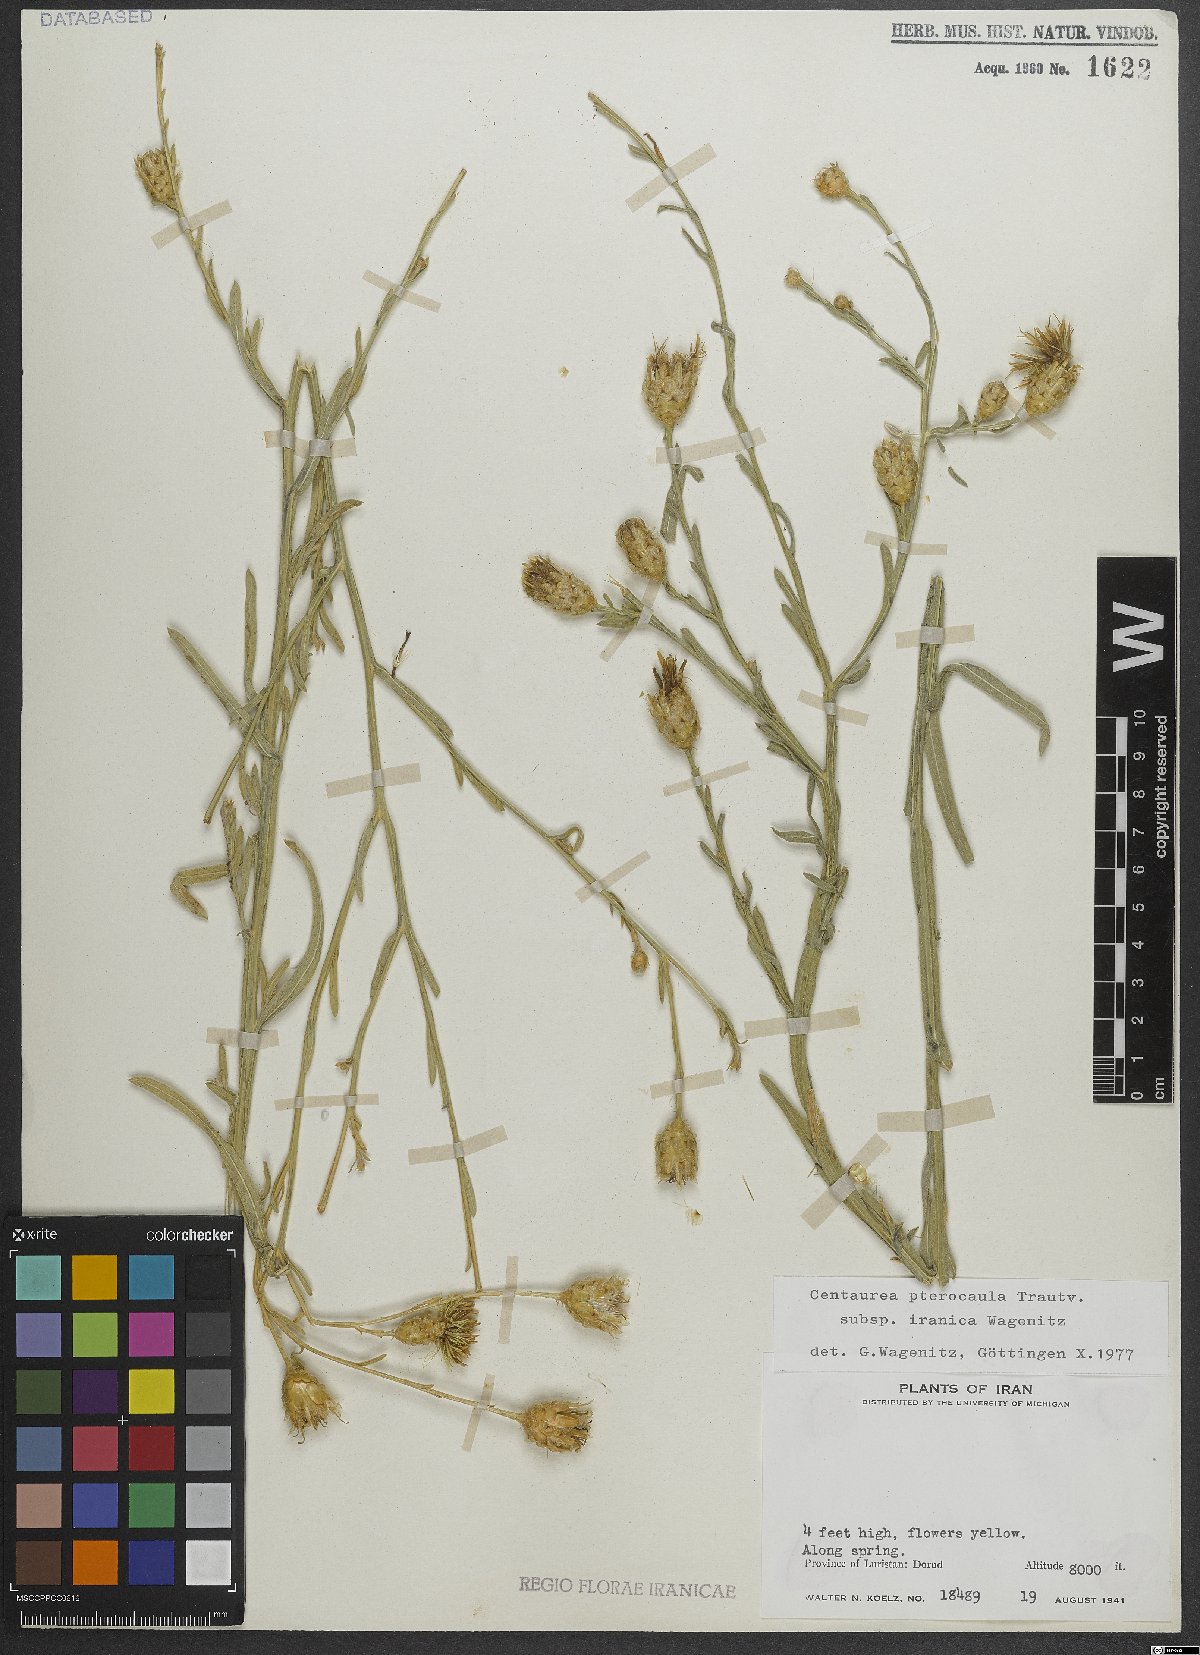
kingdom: Plantae
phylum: Tracheophyta
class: Magnoliopsida
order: Asterales
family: Asteraceae
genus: Centaurea
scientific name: Centaurea pterocaula
